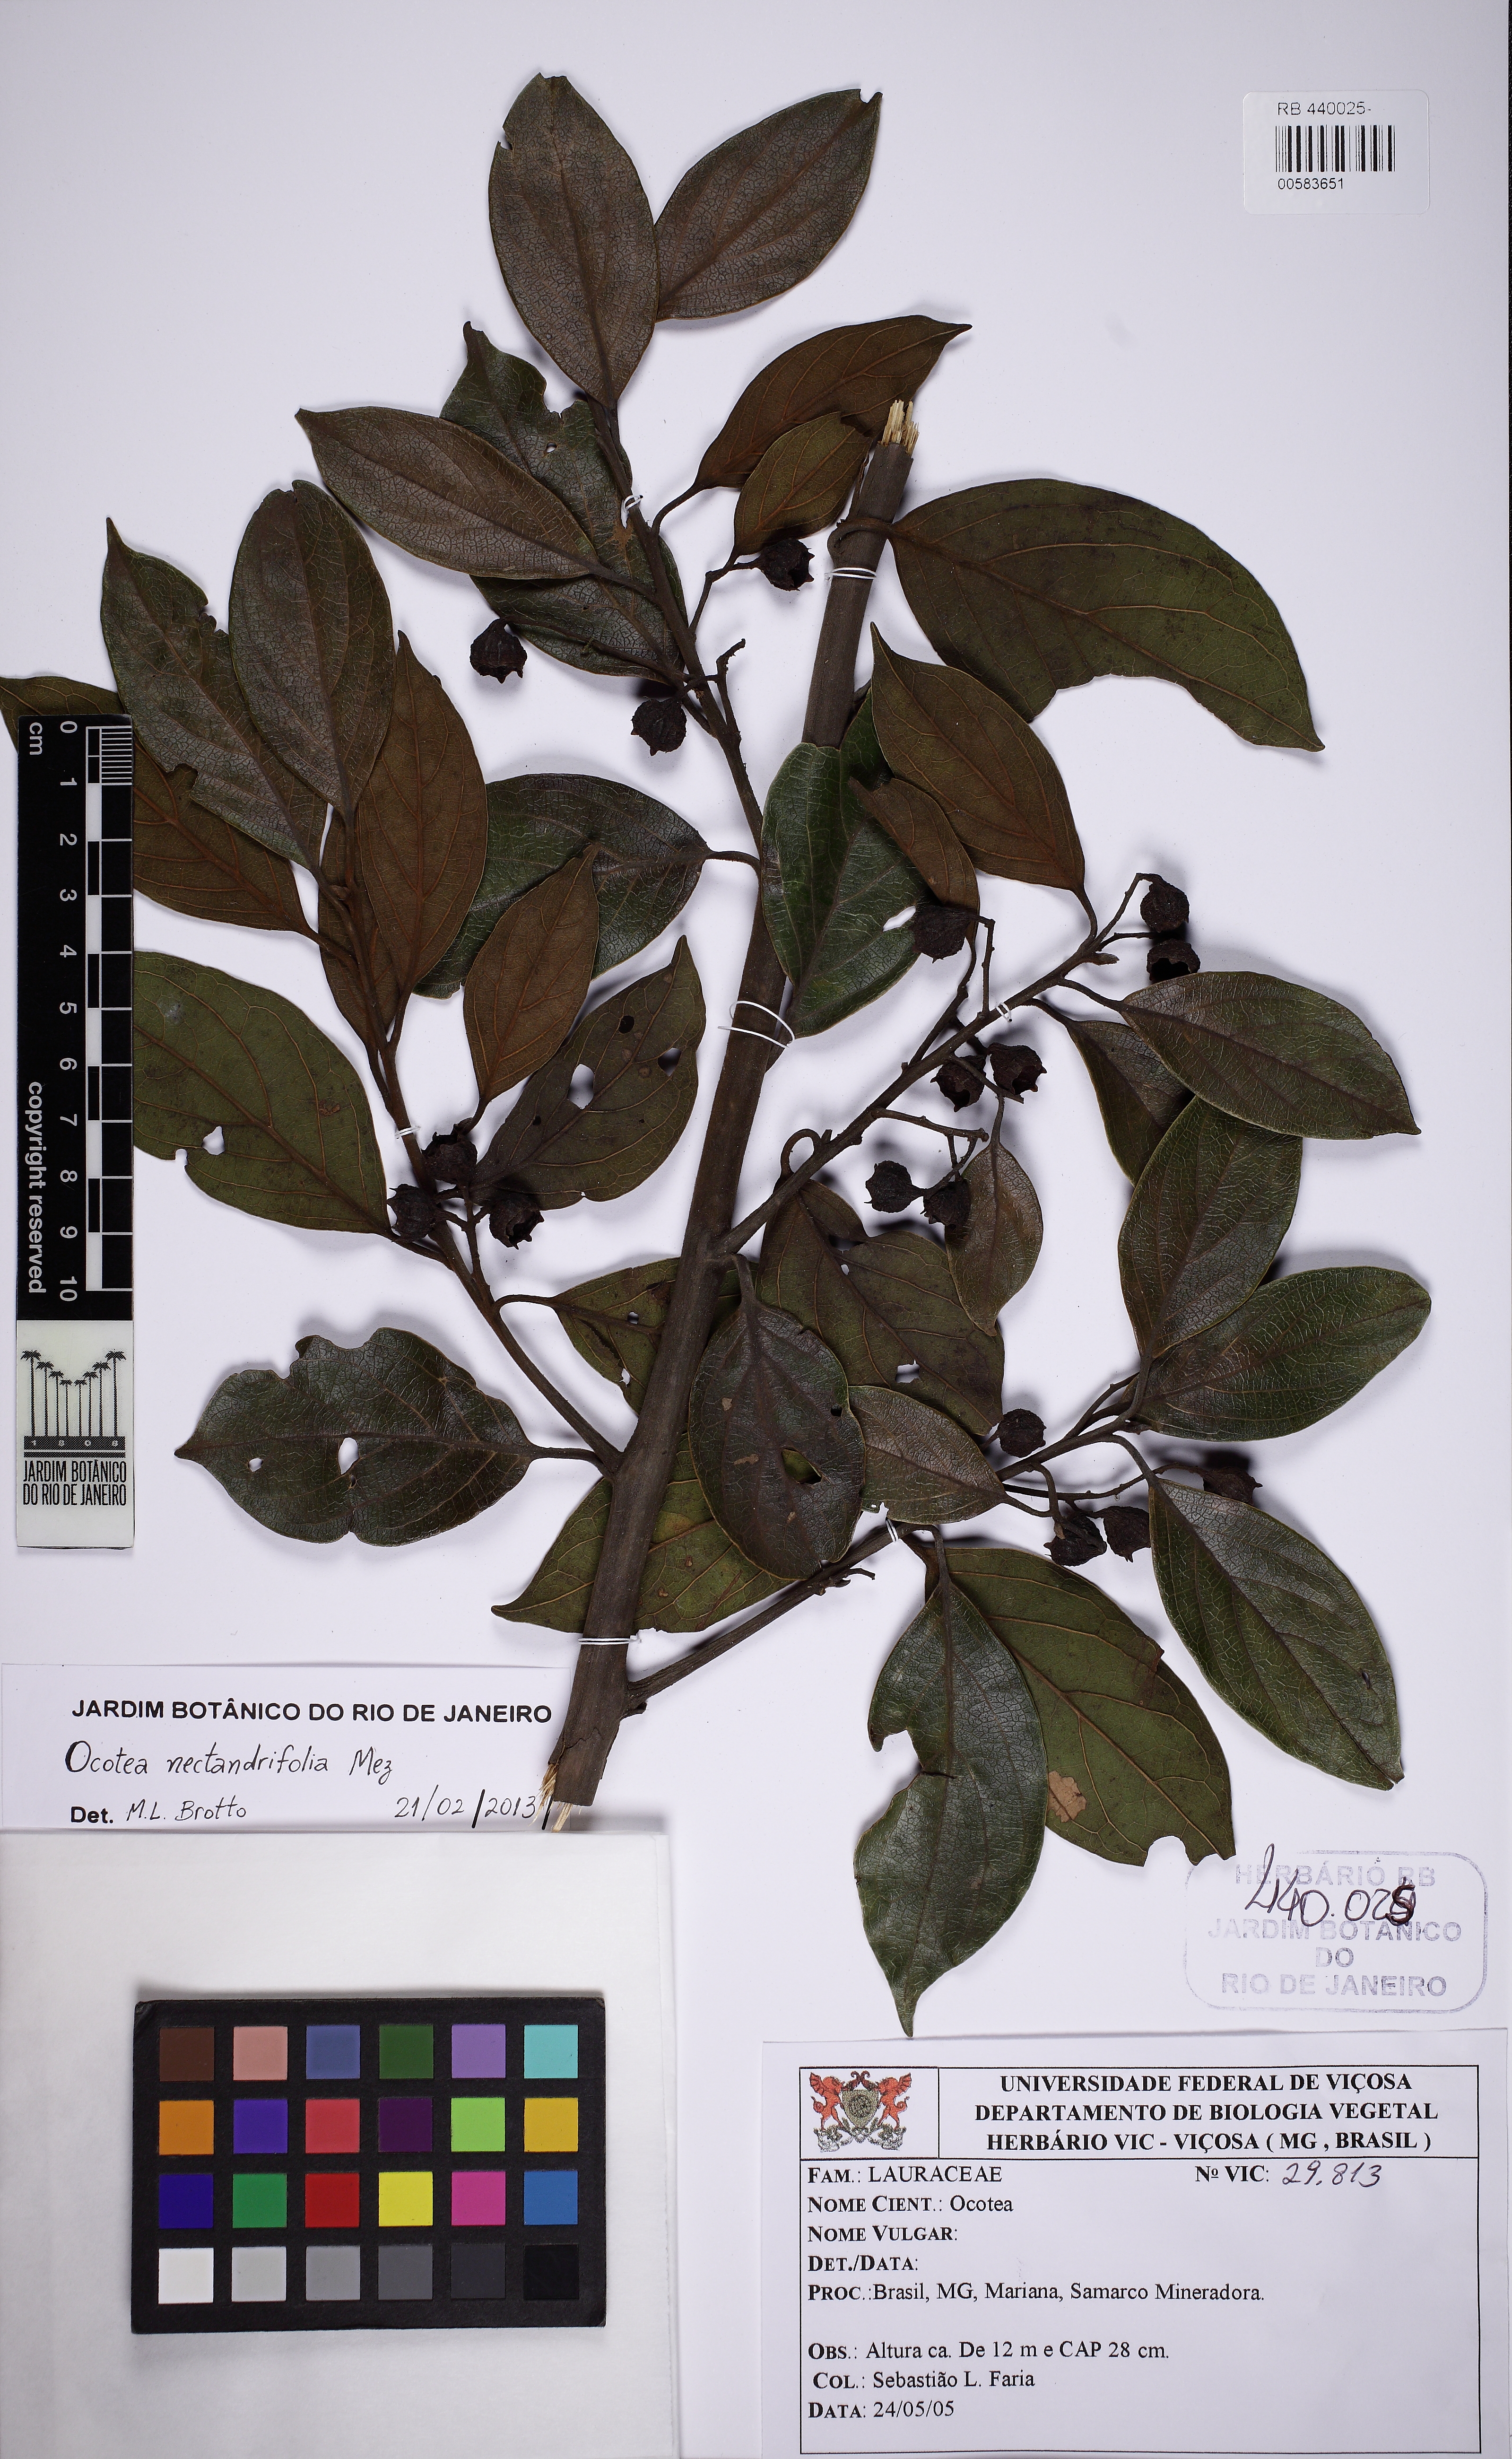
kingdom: Plantae
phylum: Tracheophyta
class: Magnoliopsida
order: Laurales
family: Lauraceae
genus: Ocotea
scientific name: Ocotea nectandrifolia
